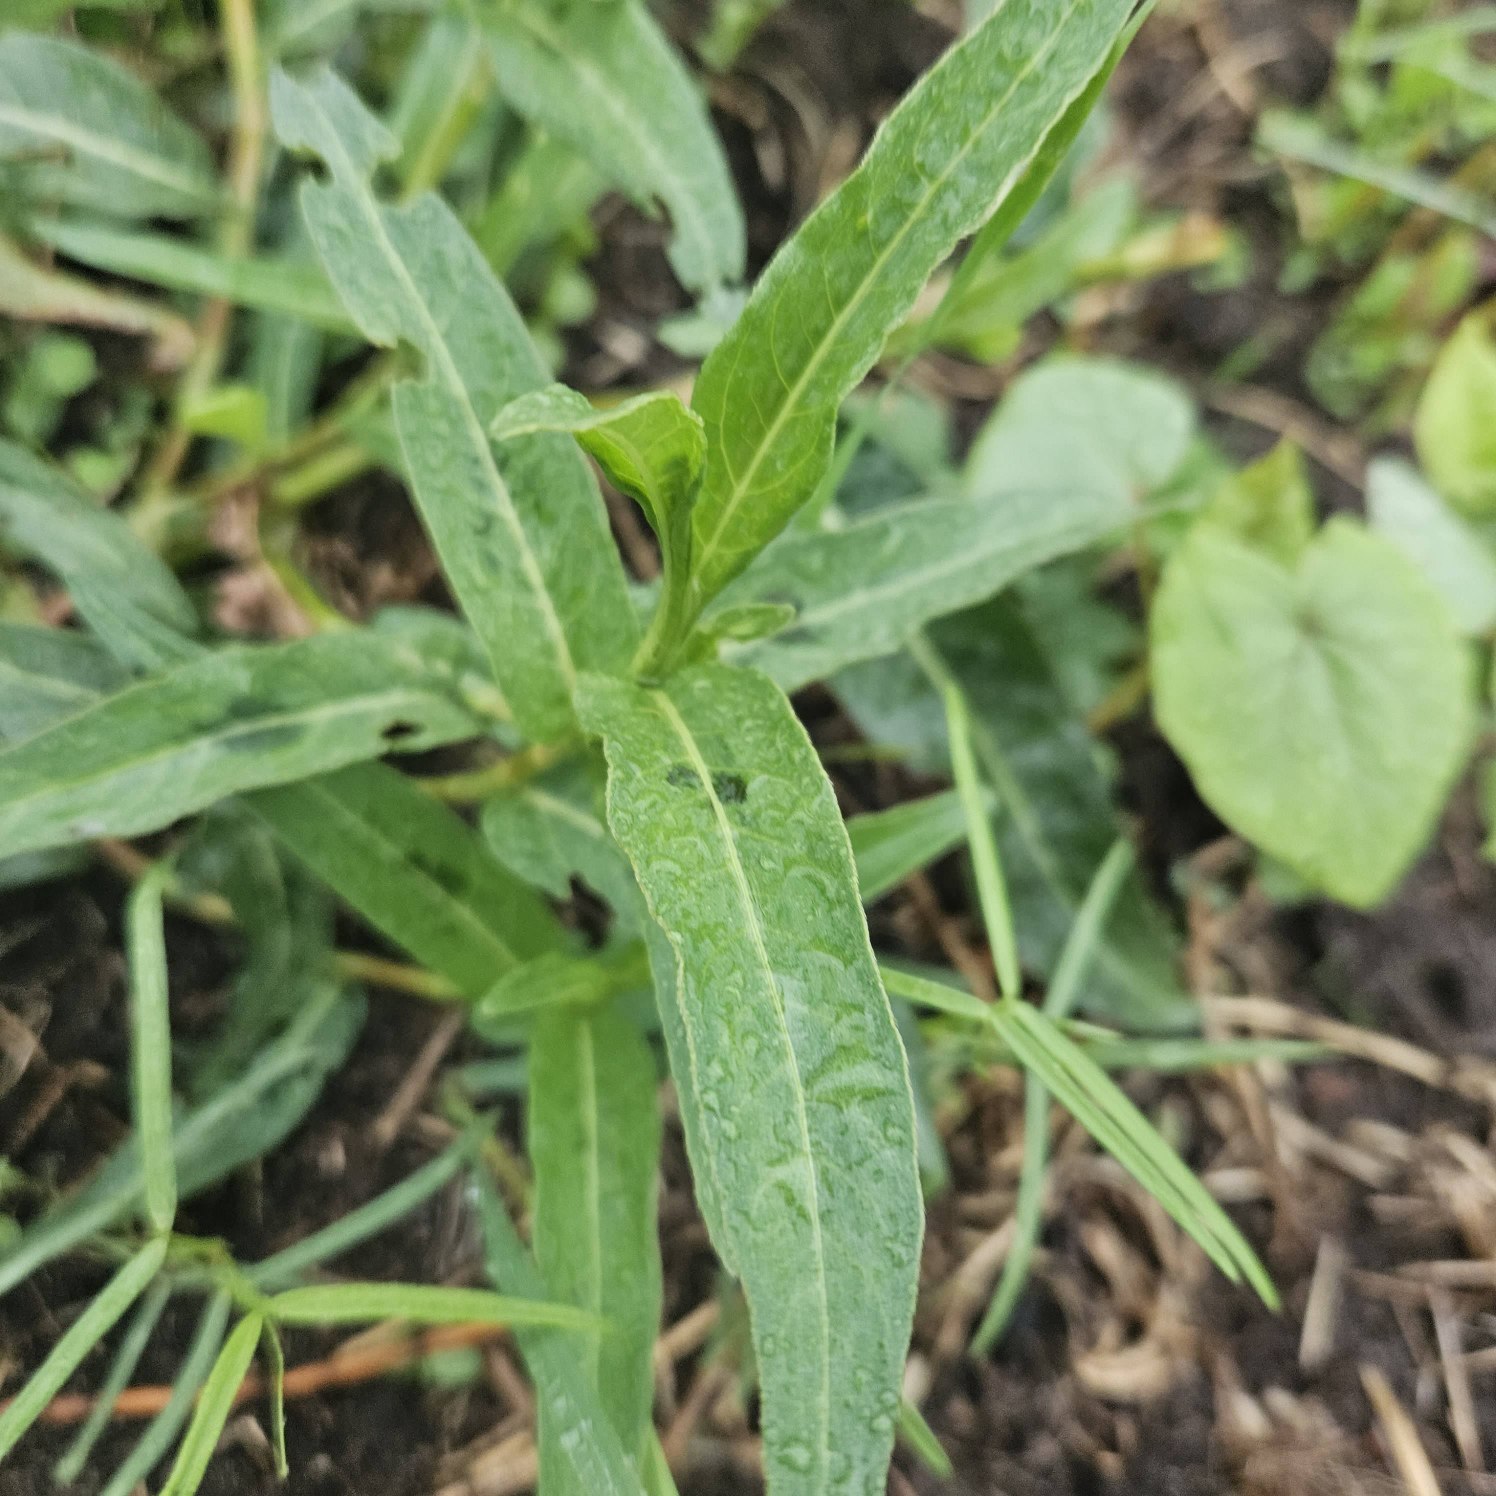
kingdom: Plantae
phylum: Tracheophyta
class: Magnoliopsida
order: Caryophyllales
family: Polygonaceae
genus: Persicaria
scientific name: Persicaria amphibia
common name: Vand-pileurt
